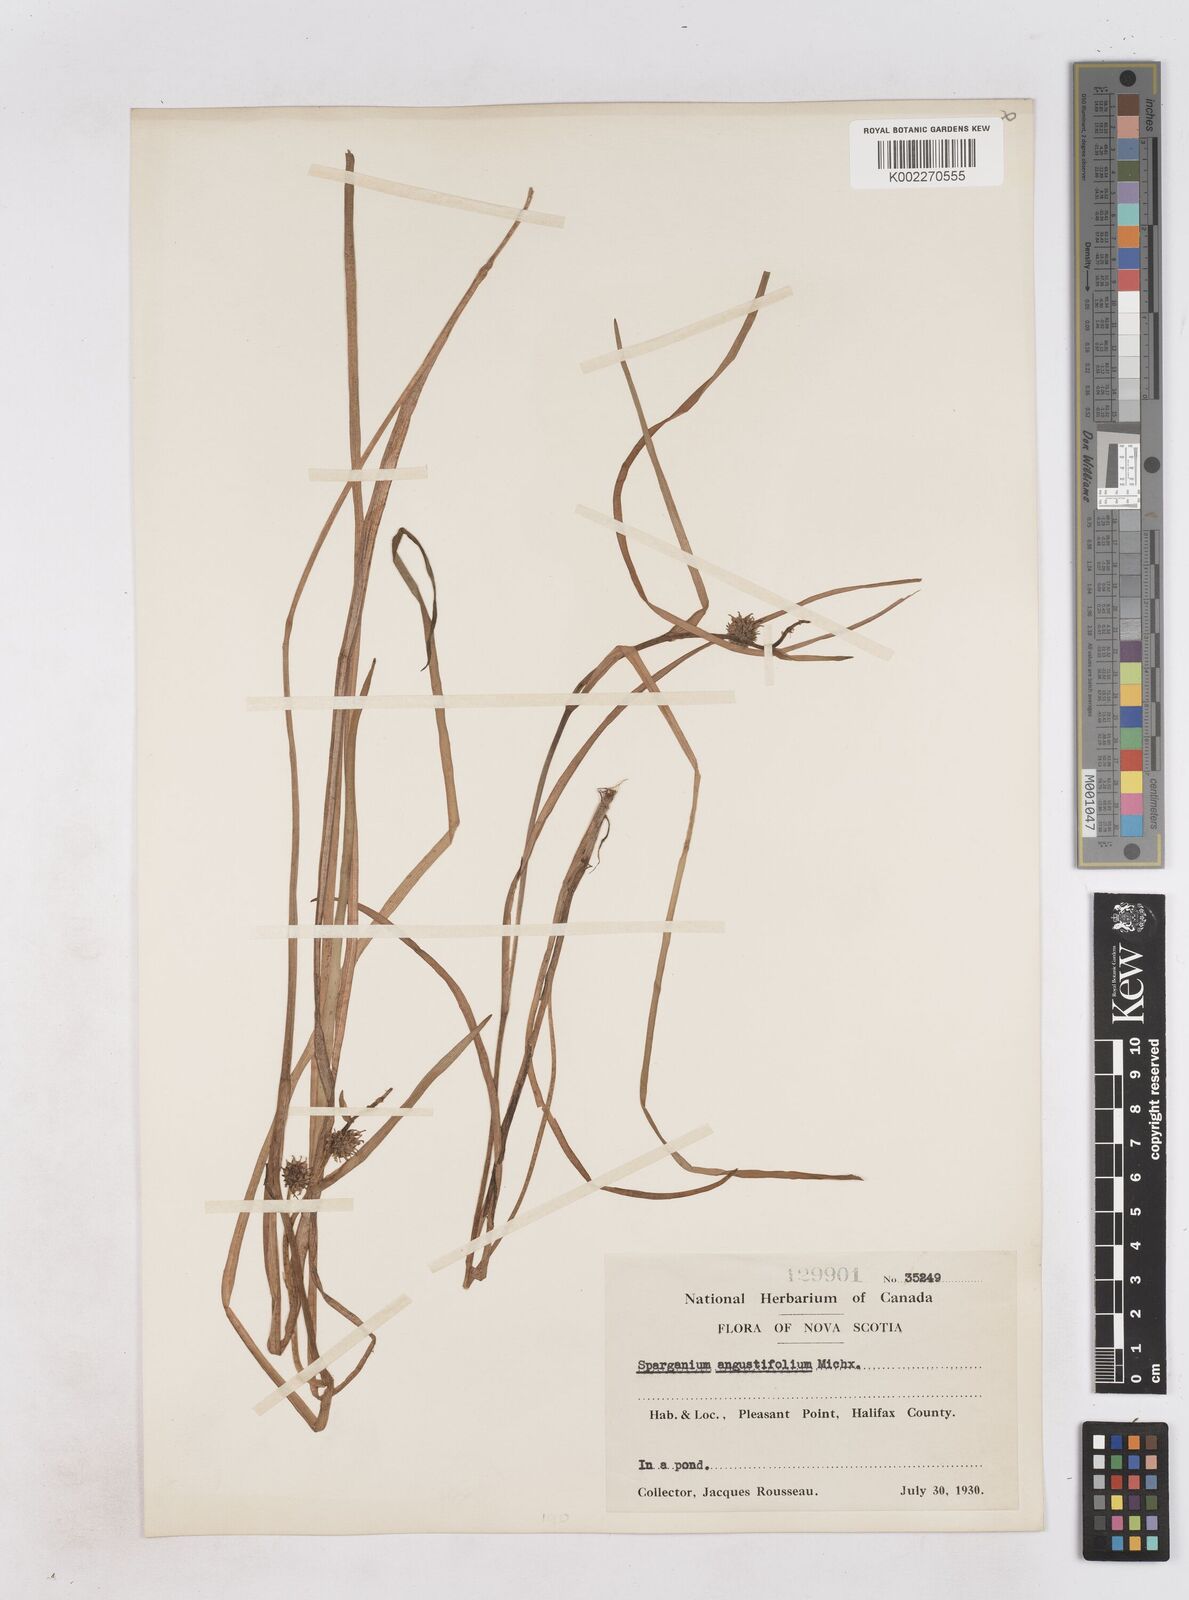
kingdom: Plantae
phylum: Tracheophyta
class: Liliopsida
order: Poales
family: Typhaceae
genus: Sparganium
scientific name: Sparganium angustifolium
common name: Floating bur-reed
